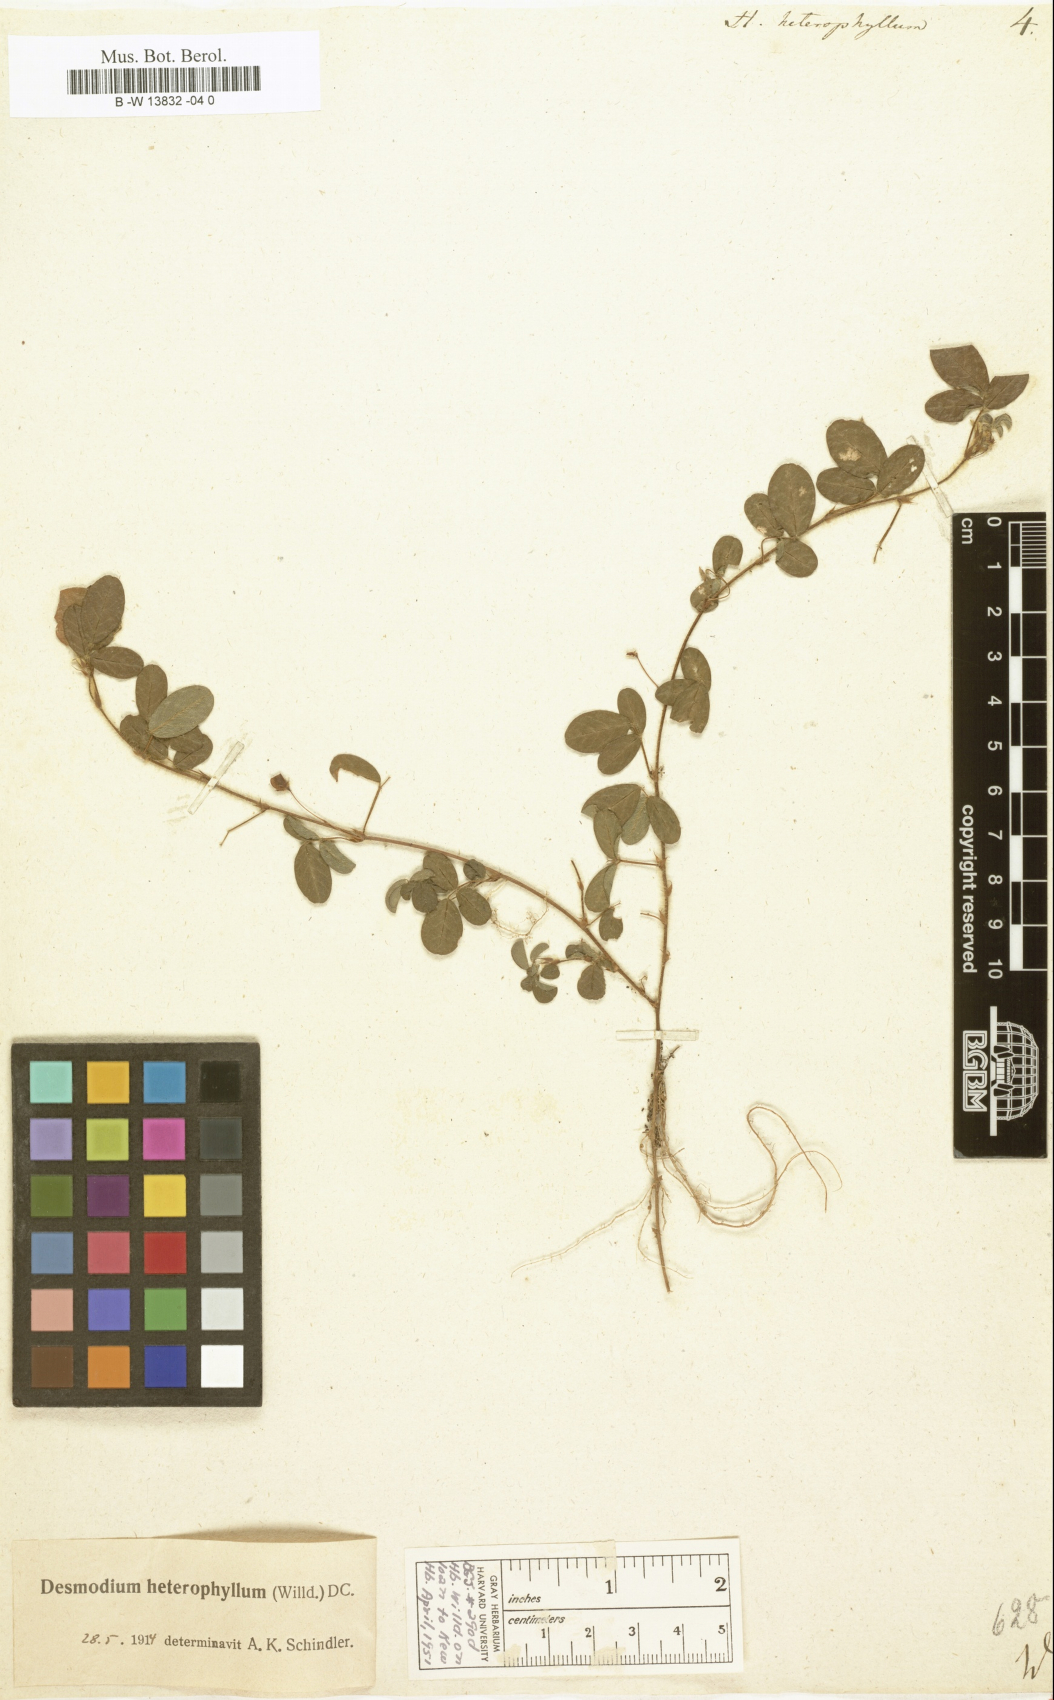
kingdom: Plantae
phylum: Tracheophyta
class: Magnoliopsida
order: Fabales
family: Fabaceae
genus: Grona
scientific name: Grona heterophylla
